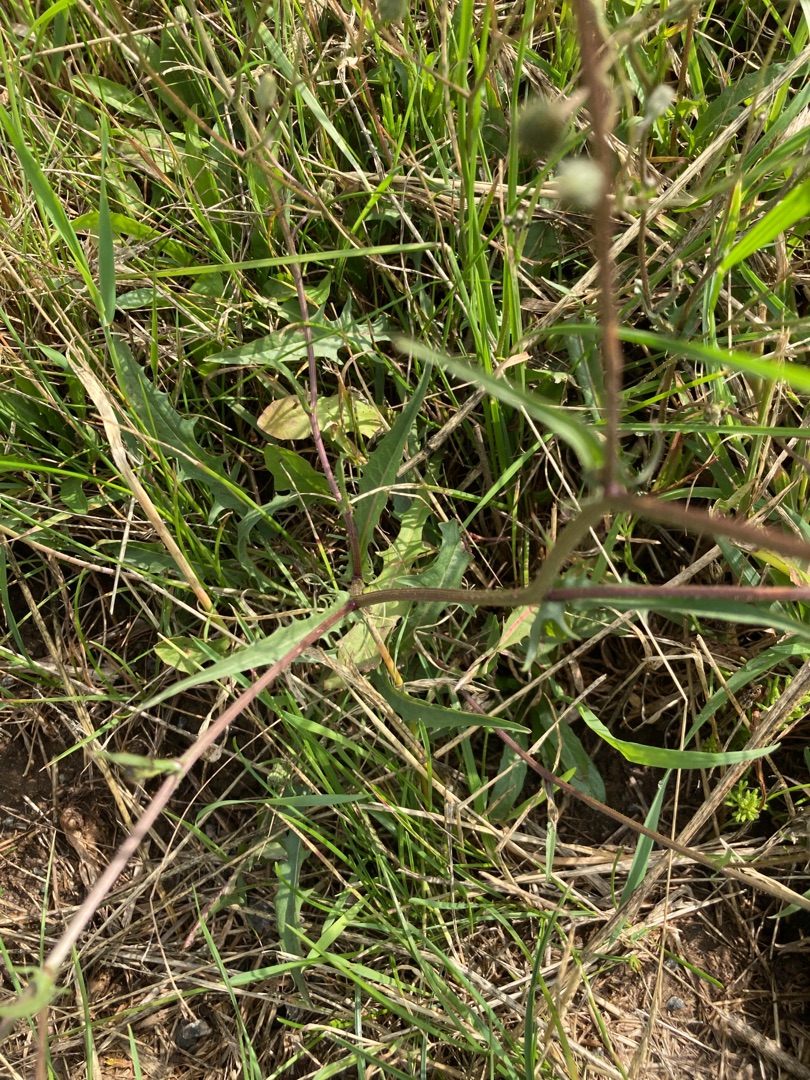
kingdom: Plantae
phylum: Tracheophyta
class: Magnoliopsida
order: Asterales
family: Asteraceae
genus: Crepis
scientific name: Crepis capillaris
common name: Grøn høgeskæg
